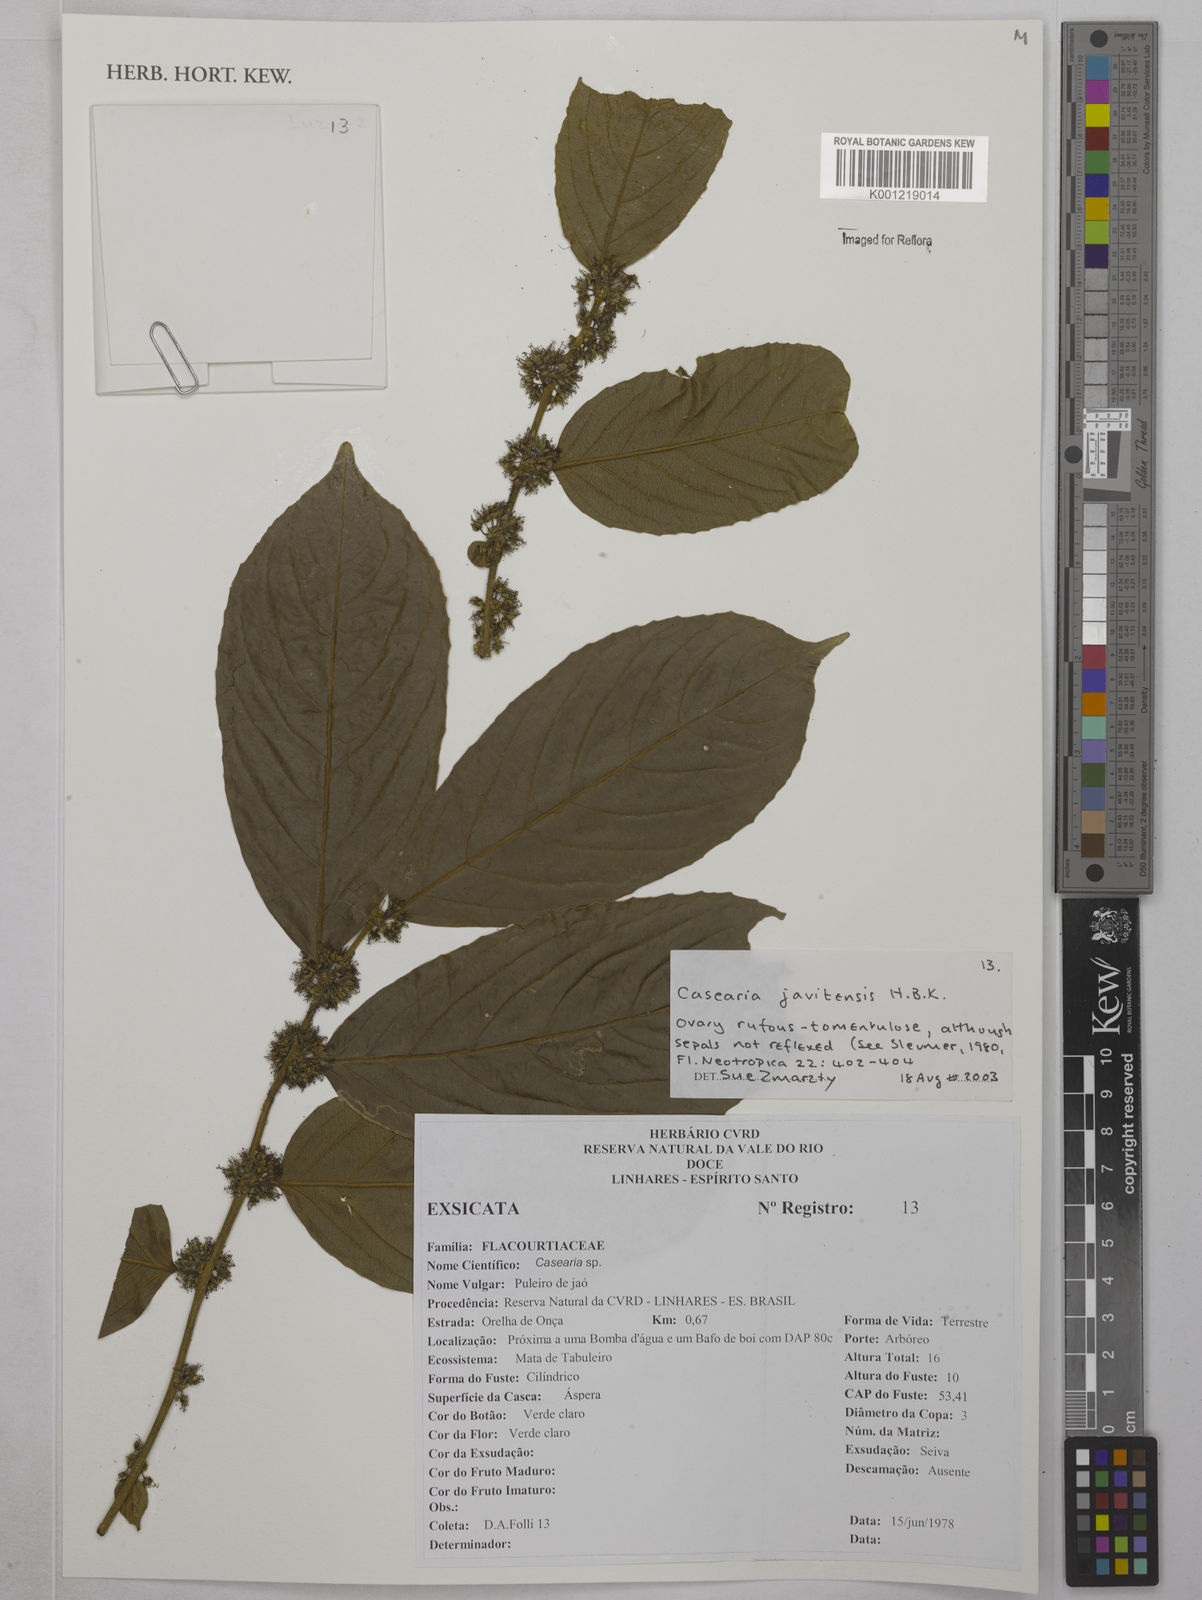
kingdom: Plantae
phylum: Tracheophyta
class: Magnoliopsida
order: Malpighiales
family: Salicaceae
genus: Piparea
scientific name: Piparea multiflora
